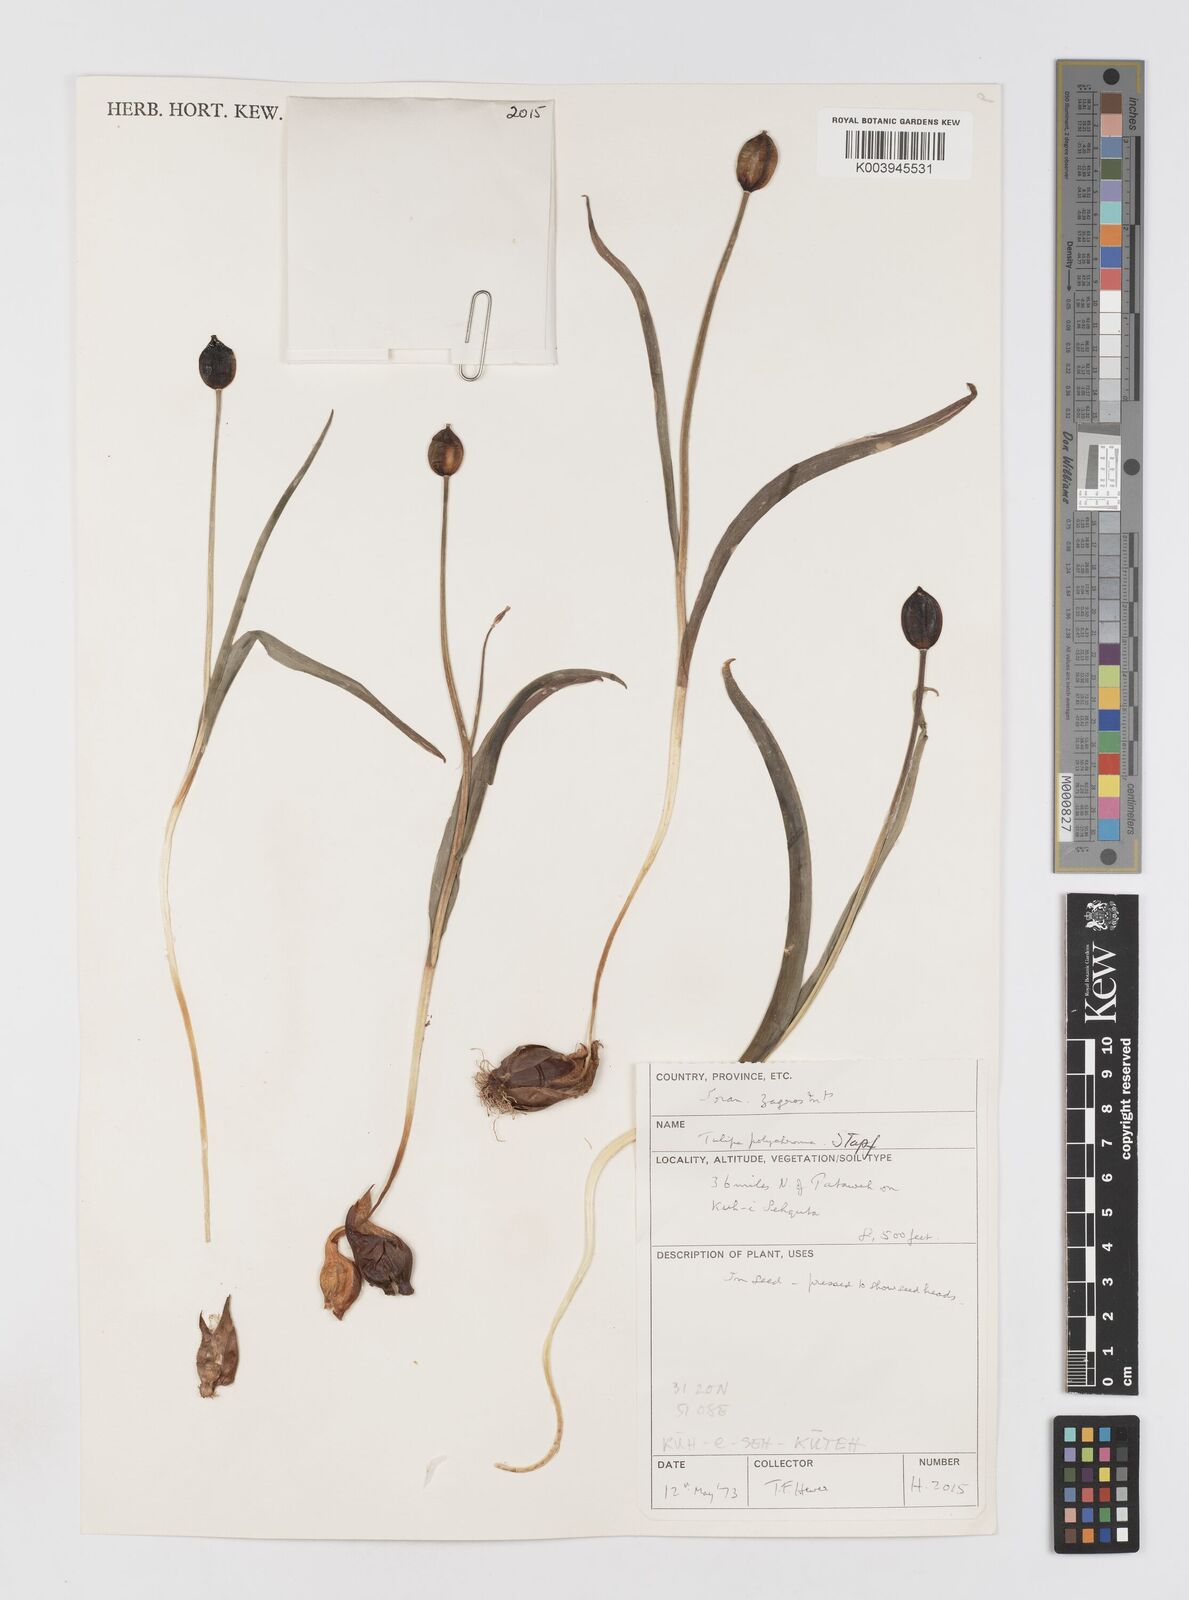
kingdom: Plantae
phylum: Tracheophyta
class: Liliopsida
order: Liliales
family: Liliaceae
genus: Tulipa
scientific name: Tulipa
